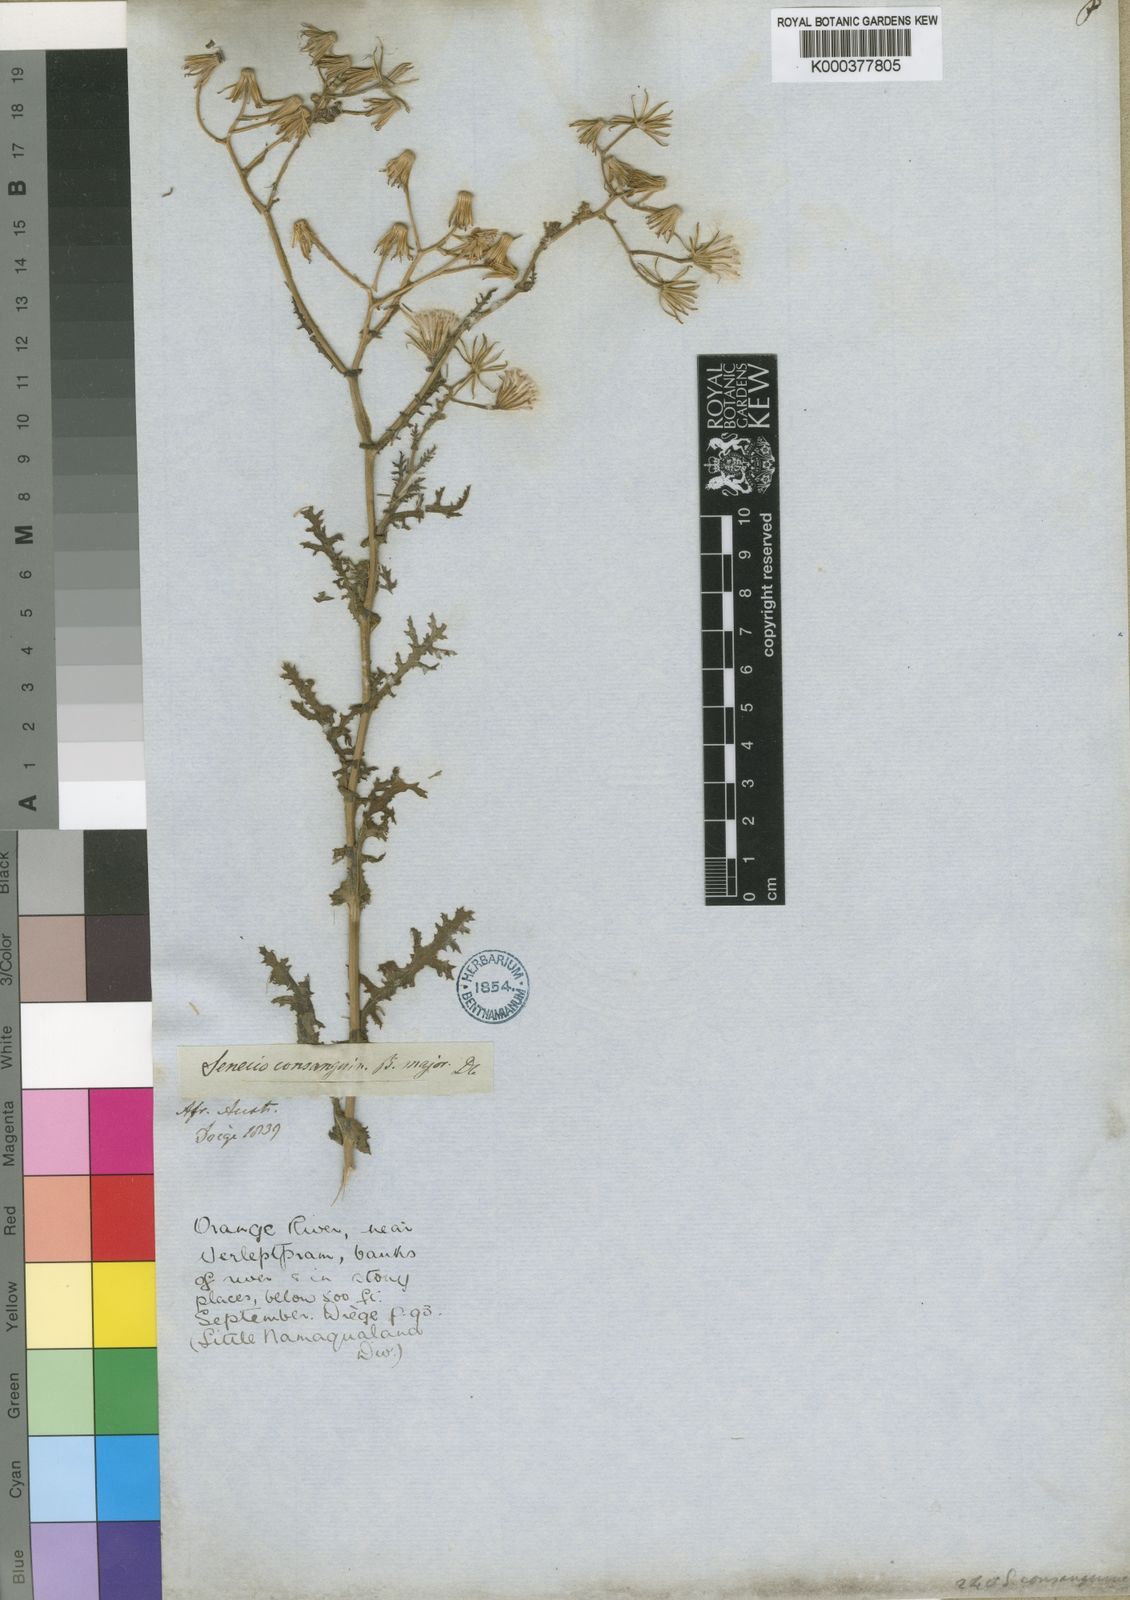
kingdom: Plantae
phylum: Tracheophyta
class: Magnoliopsida
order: Asterales
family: Asteraceae
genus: Senecio
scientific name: Senecio consanguineus
